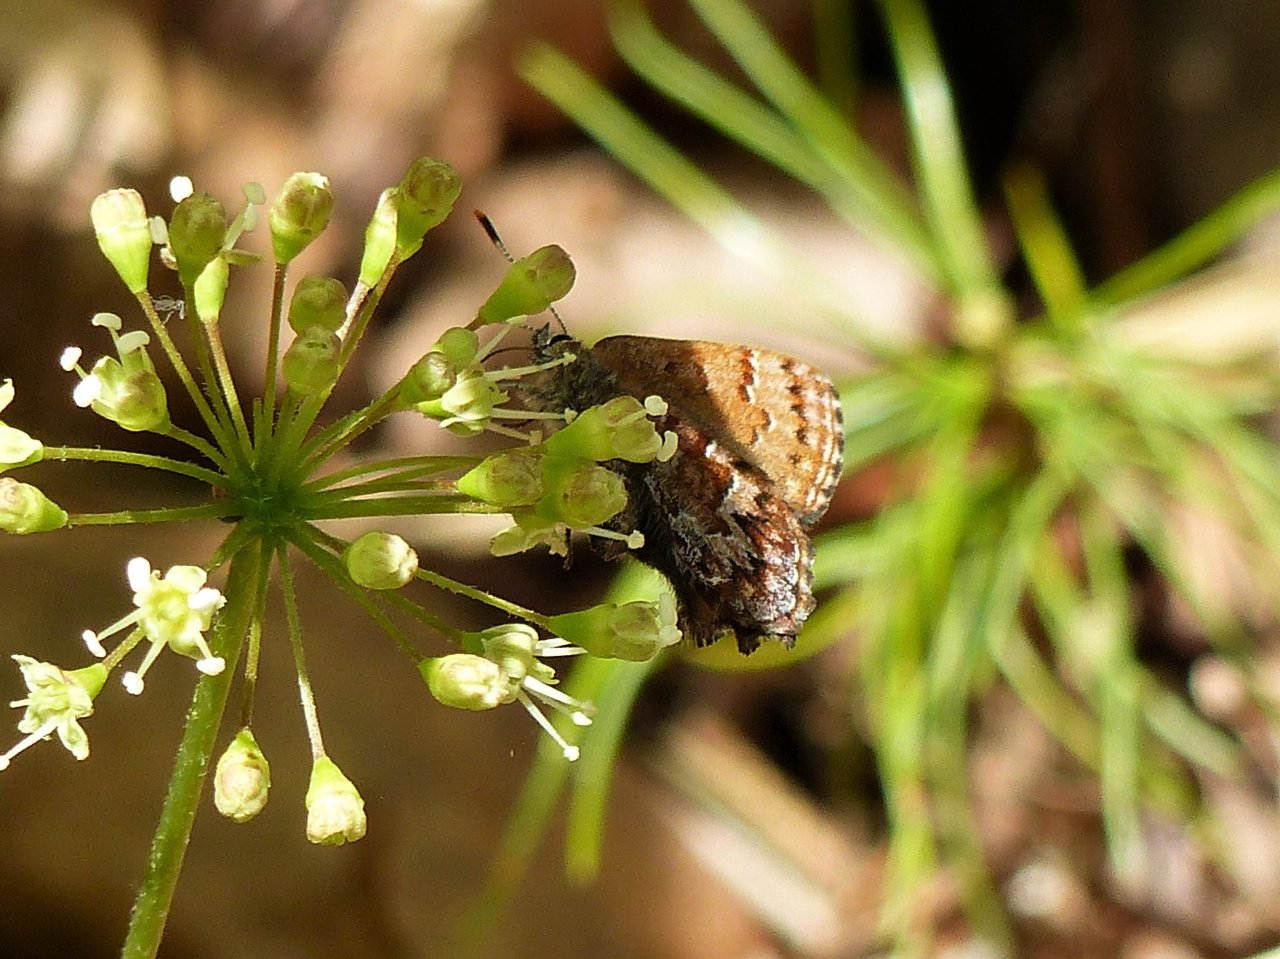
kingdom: Animalia
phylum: Arthropoda
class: Insecta
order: Lepidoptera
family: Lycaenidae
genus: Incisalia
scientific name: Incisalia niphon
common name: Eastern Pine Elfin
